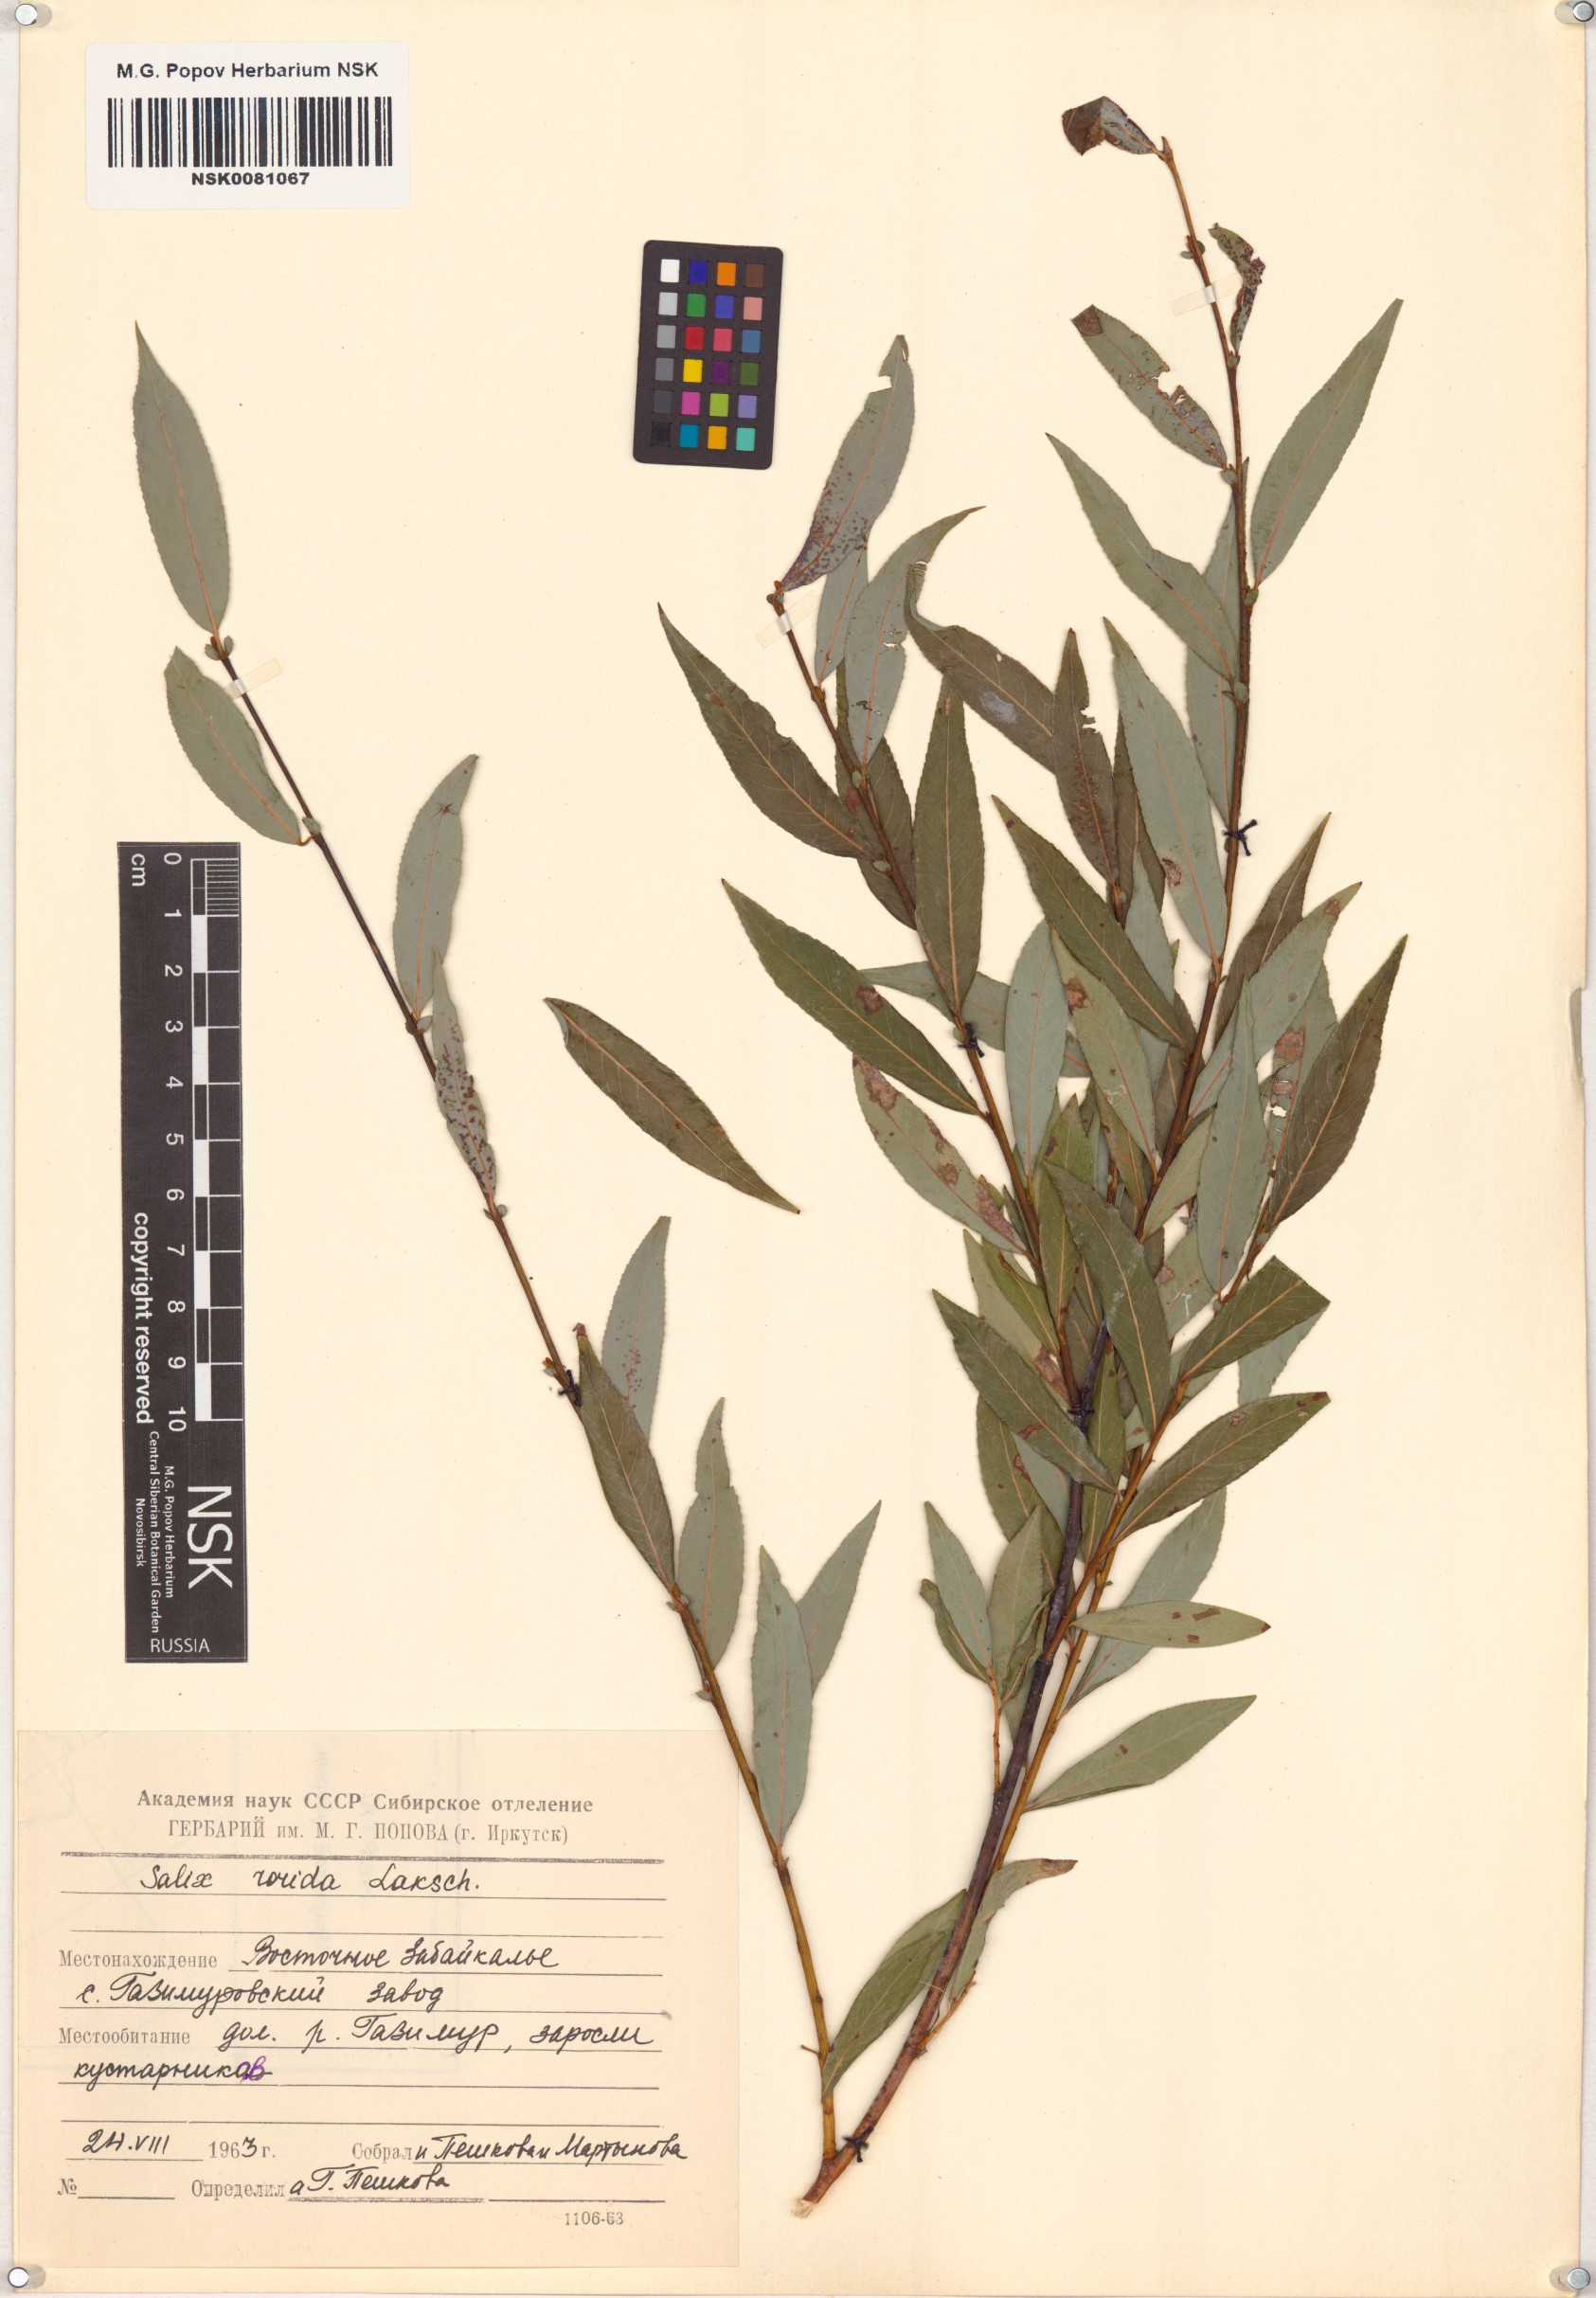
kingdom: Plantae
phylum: Tracheophyta
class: Magnoliopsida
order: Malpighiales
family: Salicaceae
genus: Salix
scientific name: Salix rorida
